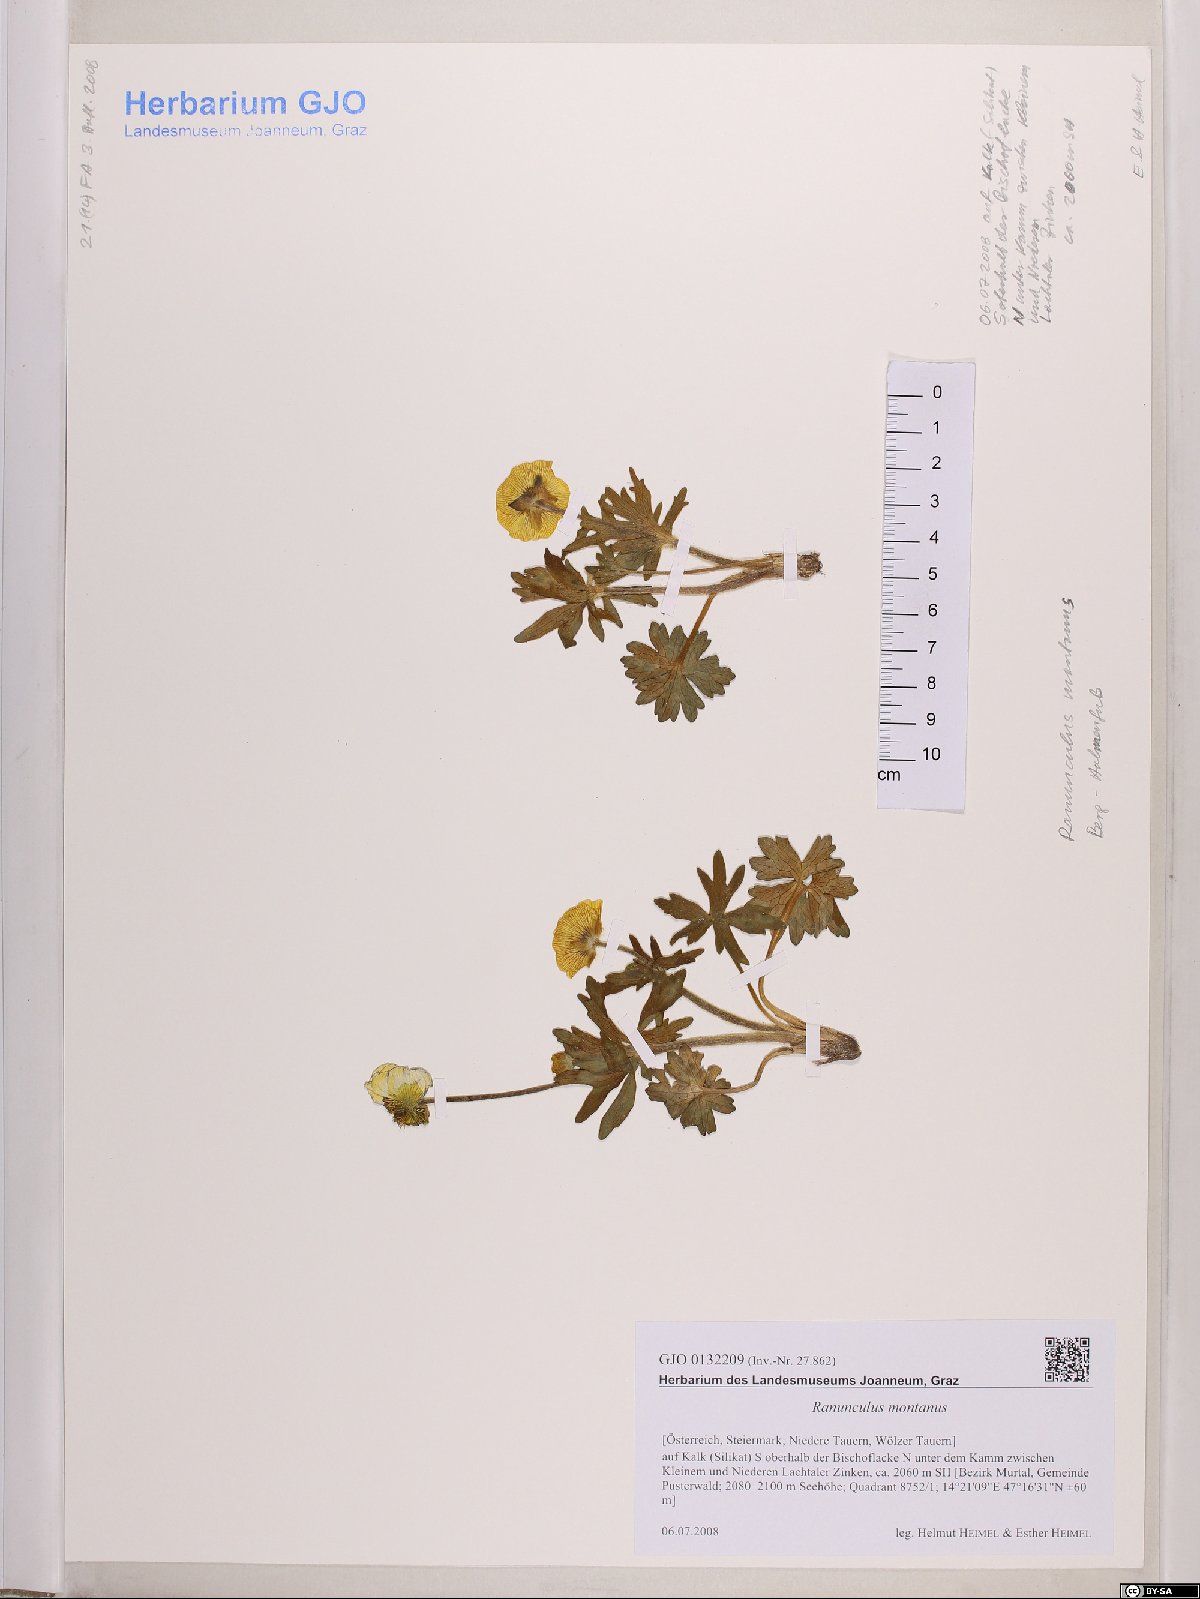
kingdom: Plantae
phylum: Tracheophyta
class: Magnoliopsida
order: Ranunculales
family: Ranunculaceae
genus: Ranunculus
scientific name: Ranunculus montanus
